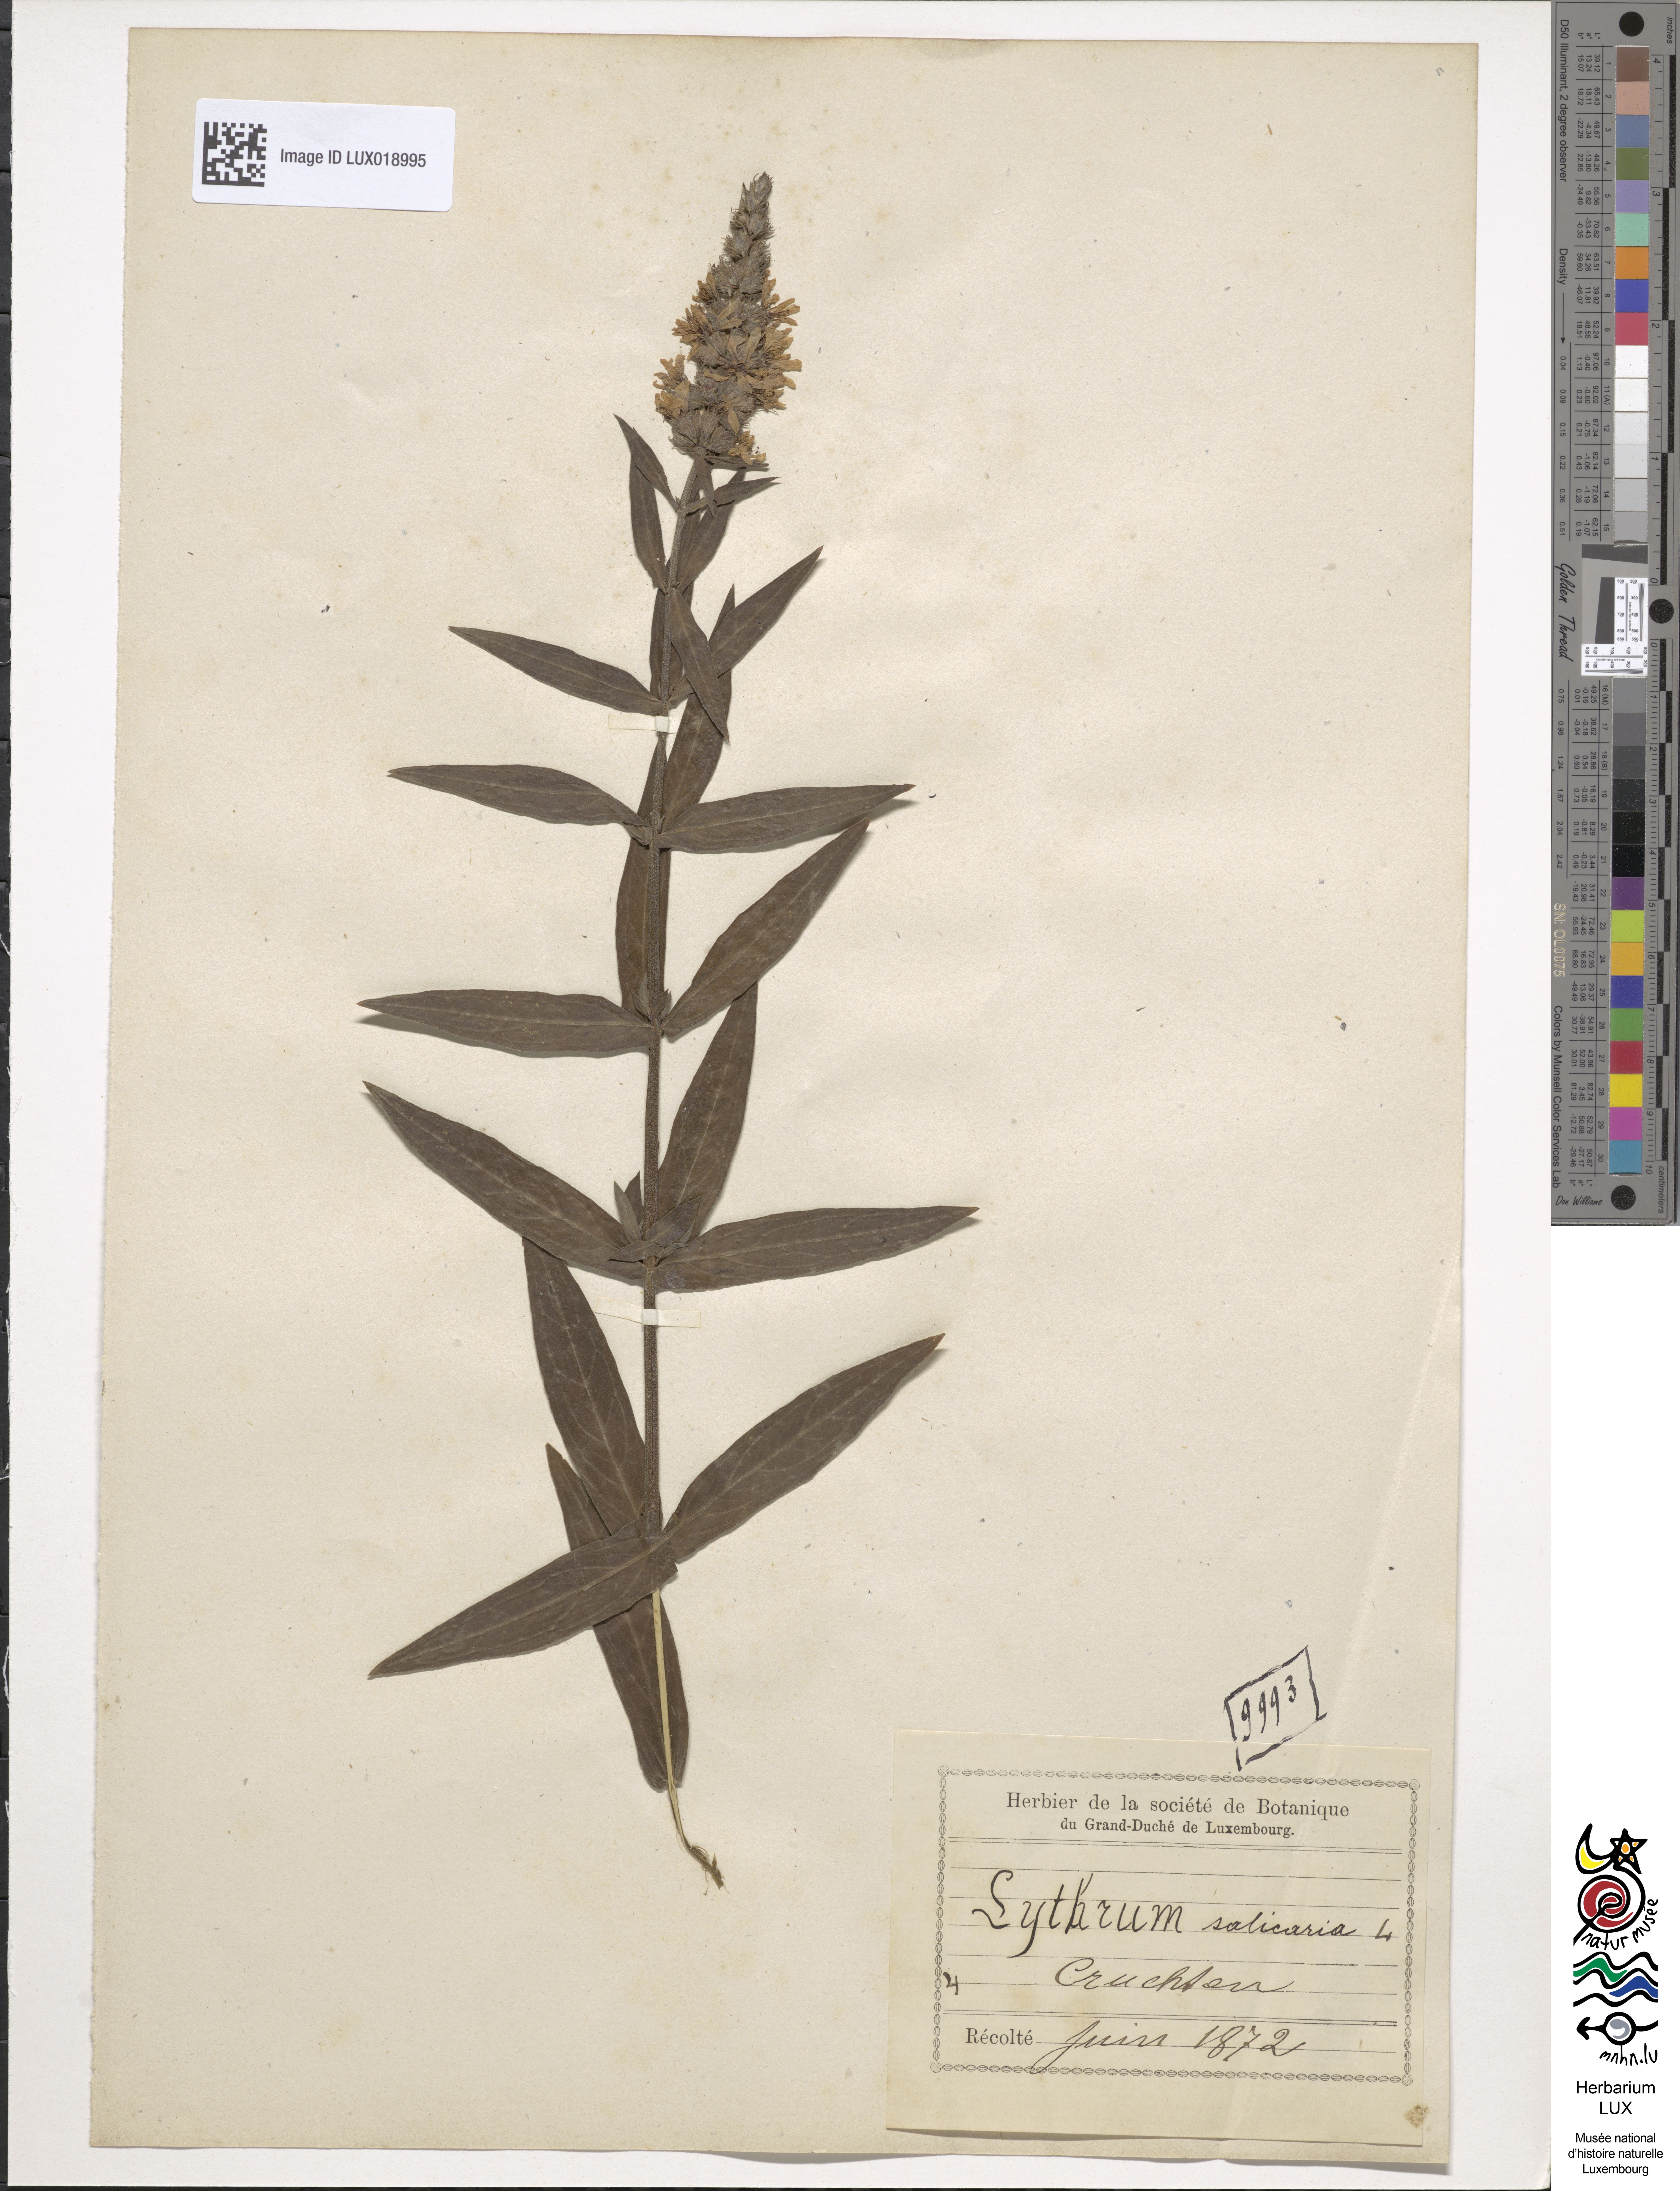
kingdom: Plantae
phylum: Tracheophyta
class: Magnoliopsida
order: Myrtales
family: Lythraceae
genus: Lythrum
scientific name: Lythrum salicaria
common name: Purple loosestrife
